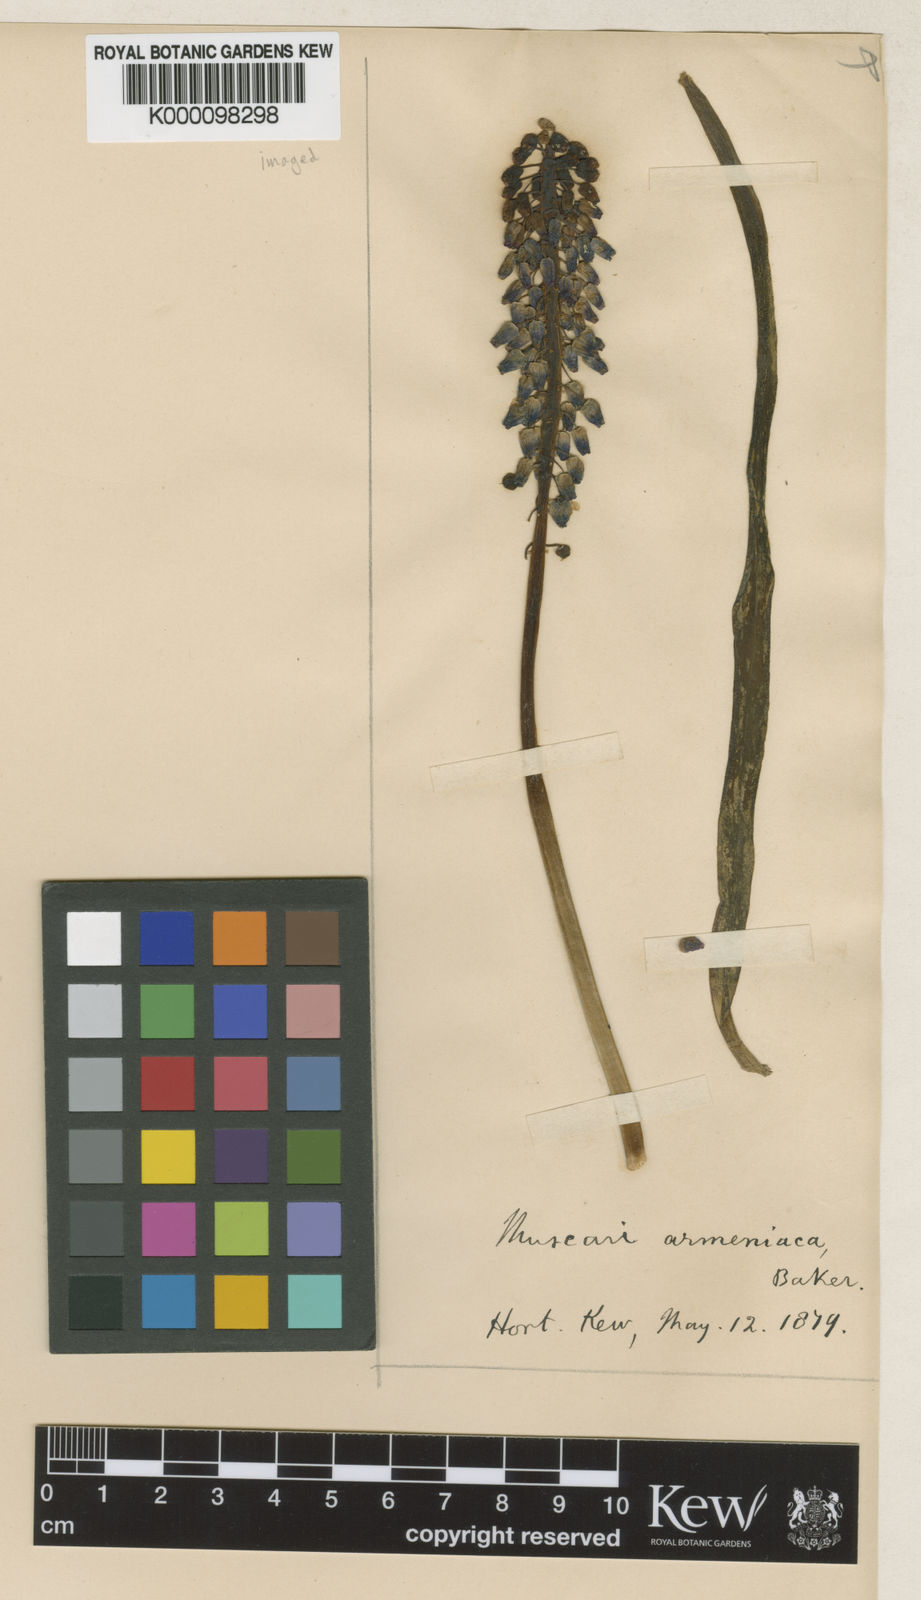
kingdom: Plantae
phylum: Tracheophyta
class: Liliopsida
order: Asparagales
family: Asparagaceae
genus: Muscari
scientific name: Muscari
